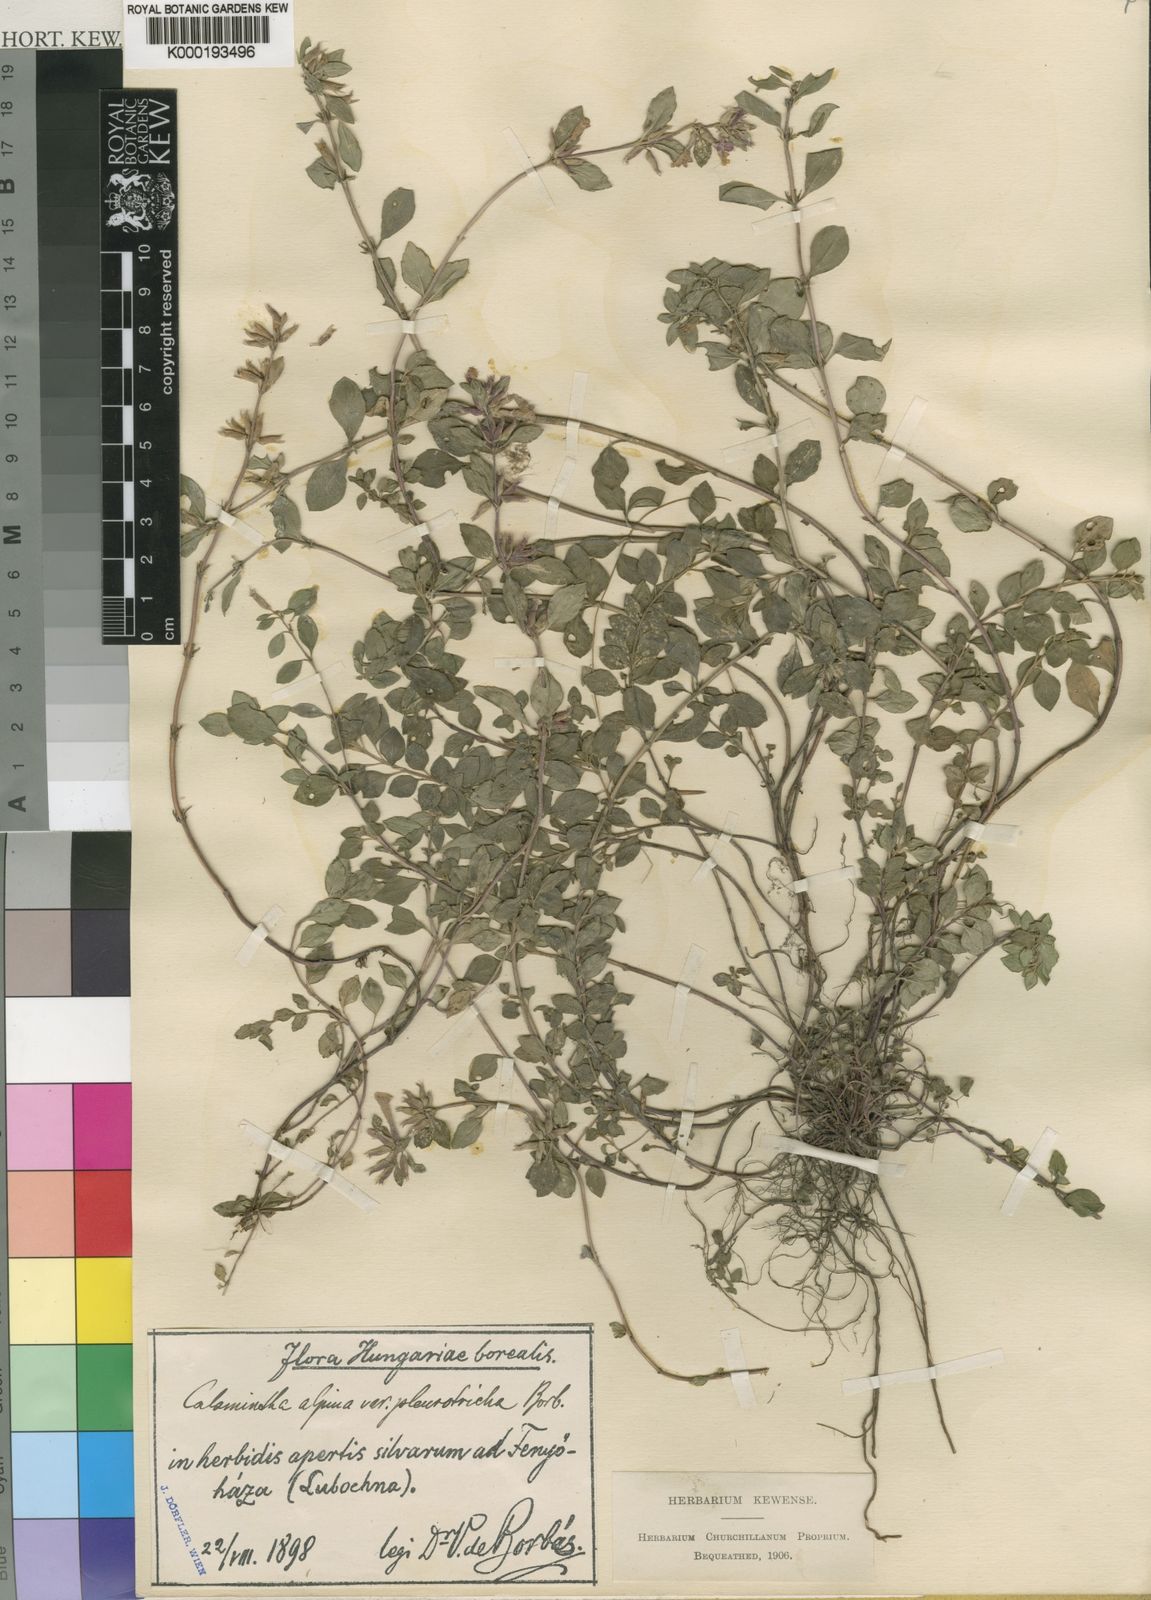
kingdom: Plantae
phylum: Tracheophyta
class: Magnoliopsida
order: Lamiales
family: Lamiaceae
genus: Clinopodium
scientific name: Clinopodium alpinum
